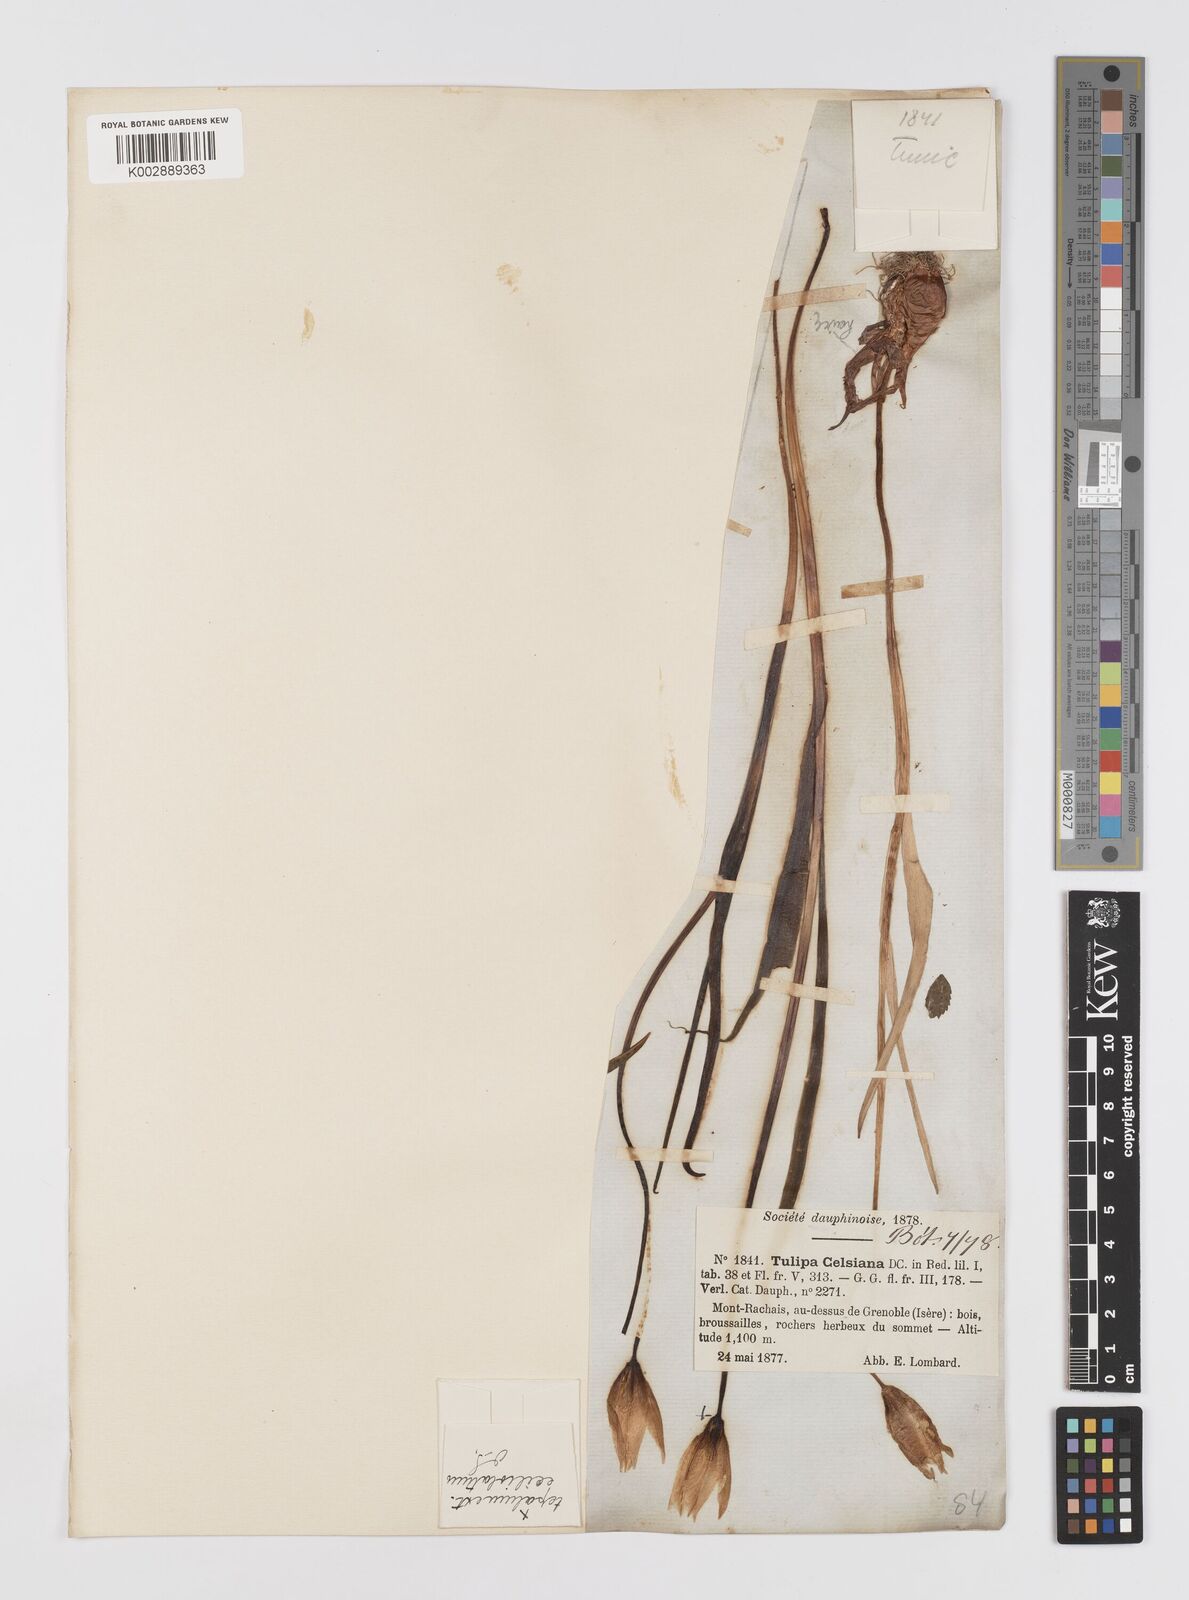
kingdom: Plantae
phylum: Tracheophyta
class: Liliopsida
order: Liliales
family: Liliaceae
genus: Tulipa
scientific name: Tulipa sylvestris
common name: Wild tulip
